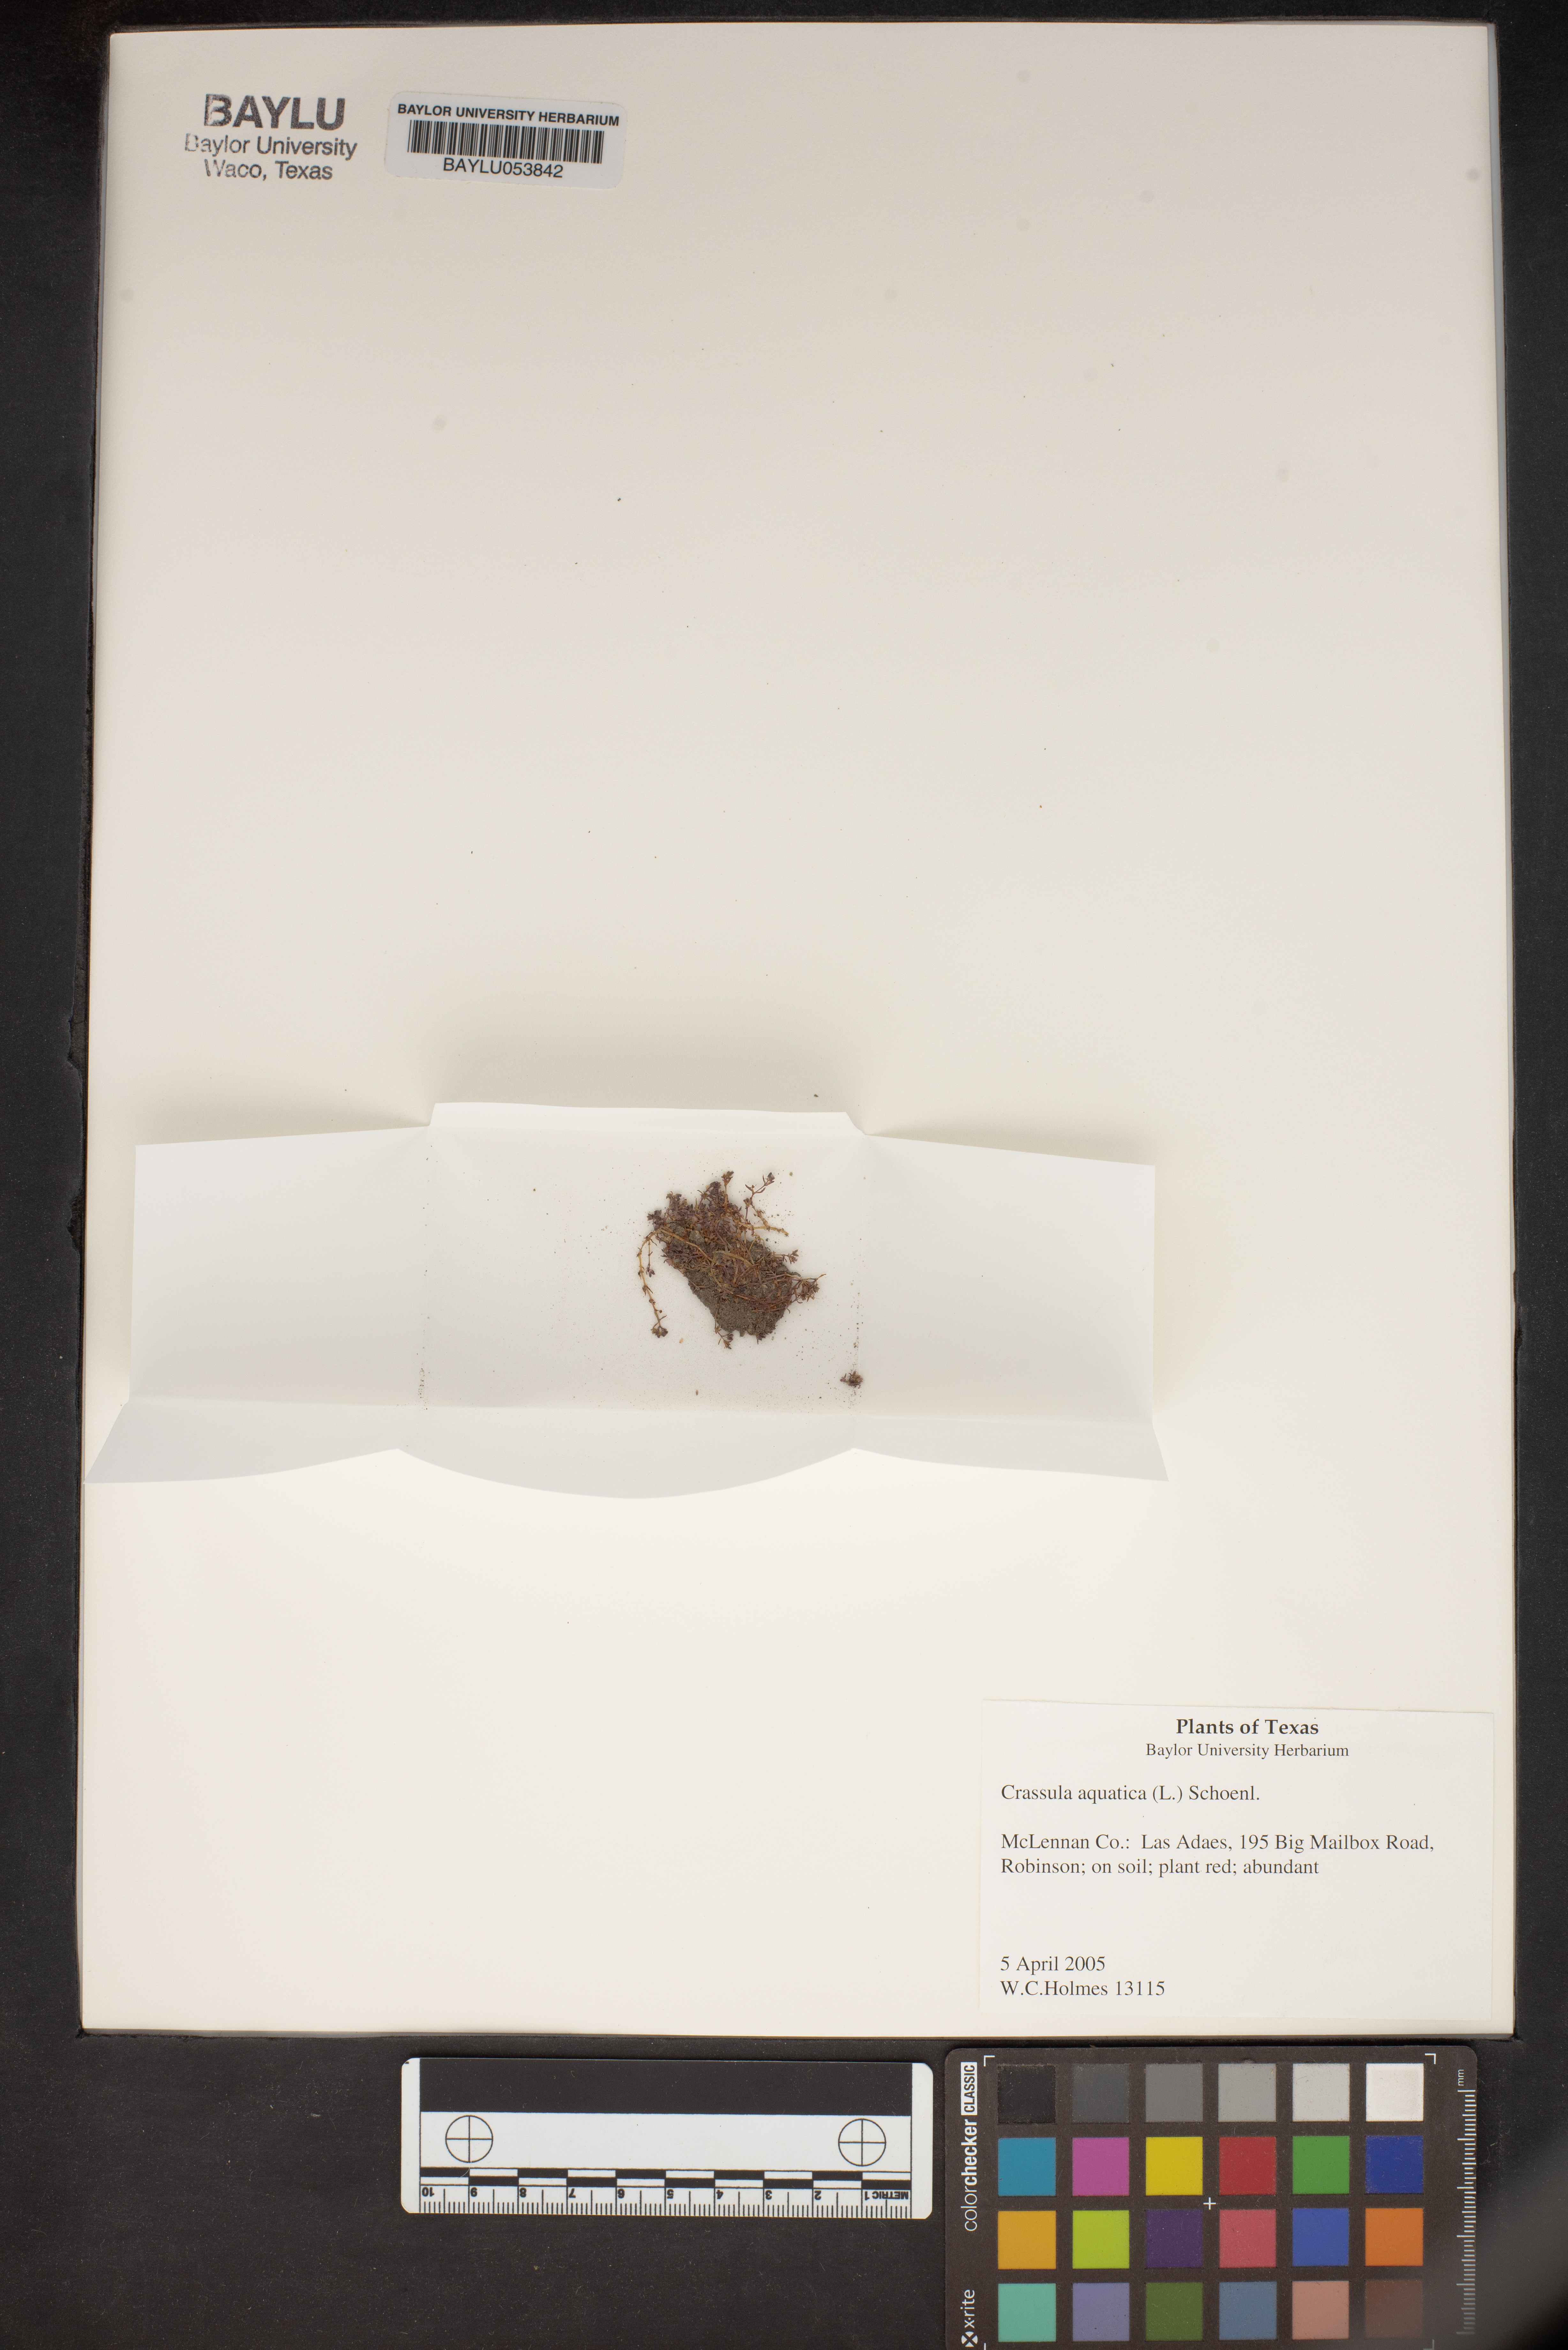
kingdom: Plantae
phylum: Tracheophyta
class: Magnoliopsida
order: Saxifragales
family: Crassulaceae
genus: Crassula
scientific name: Crassula aquatica
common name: Pigmyweed
